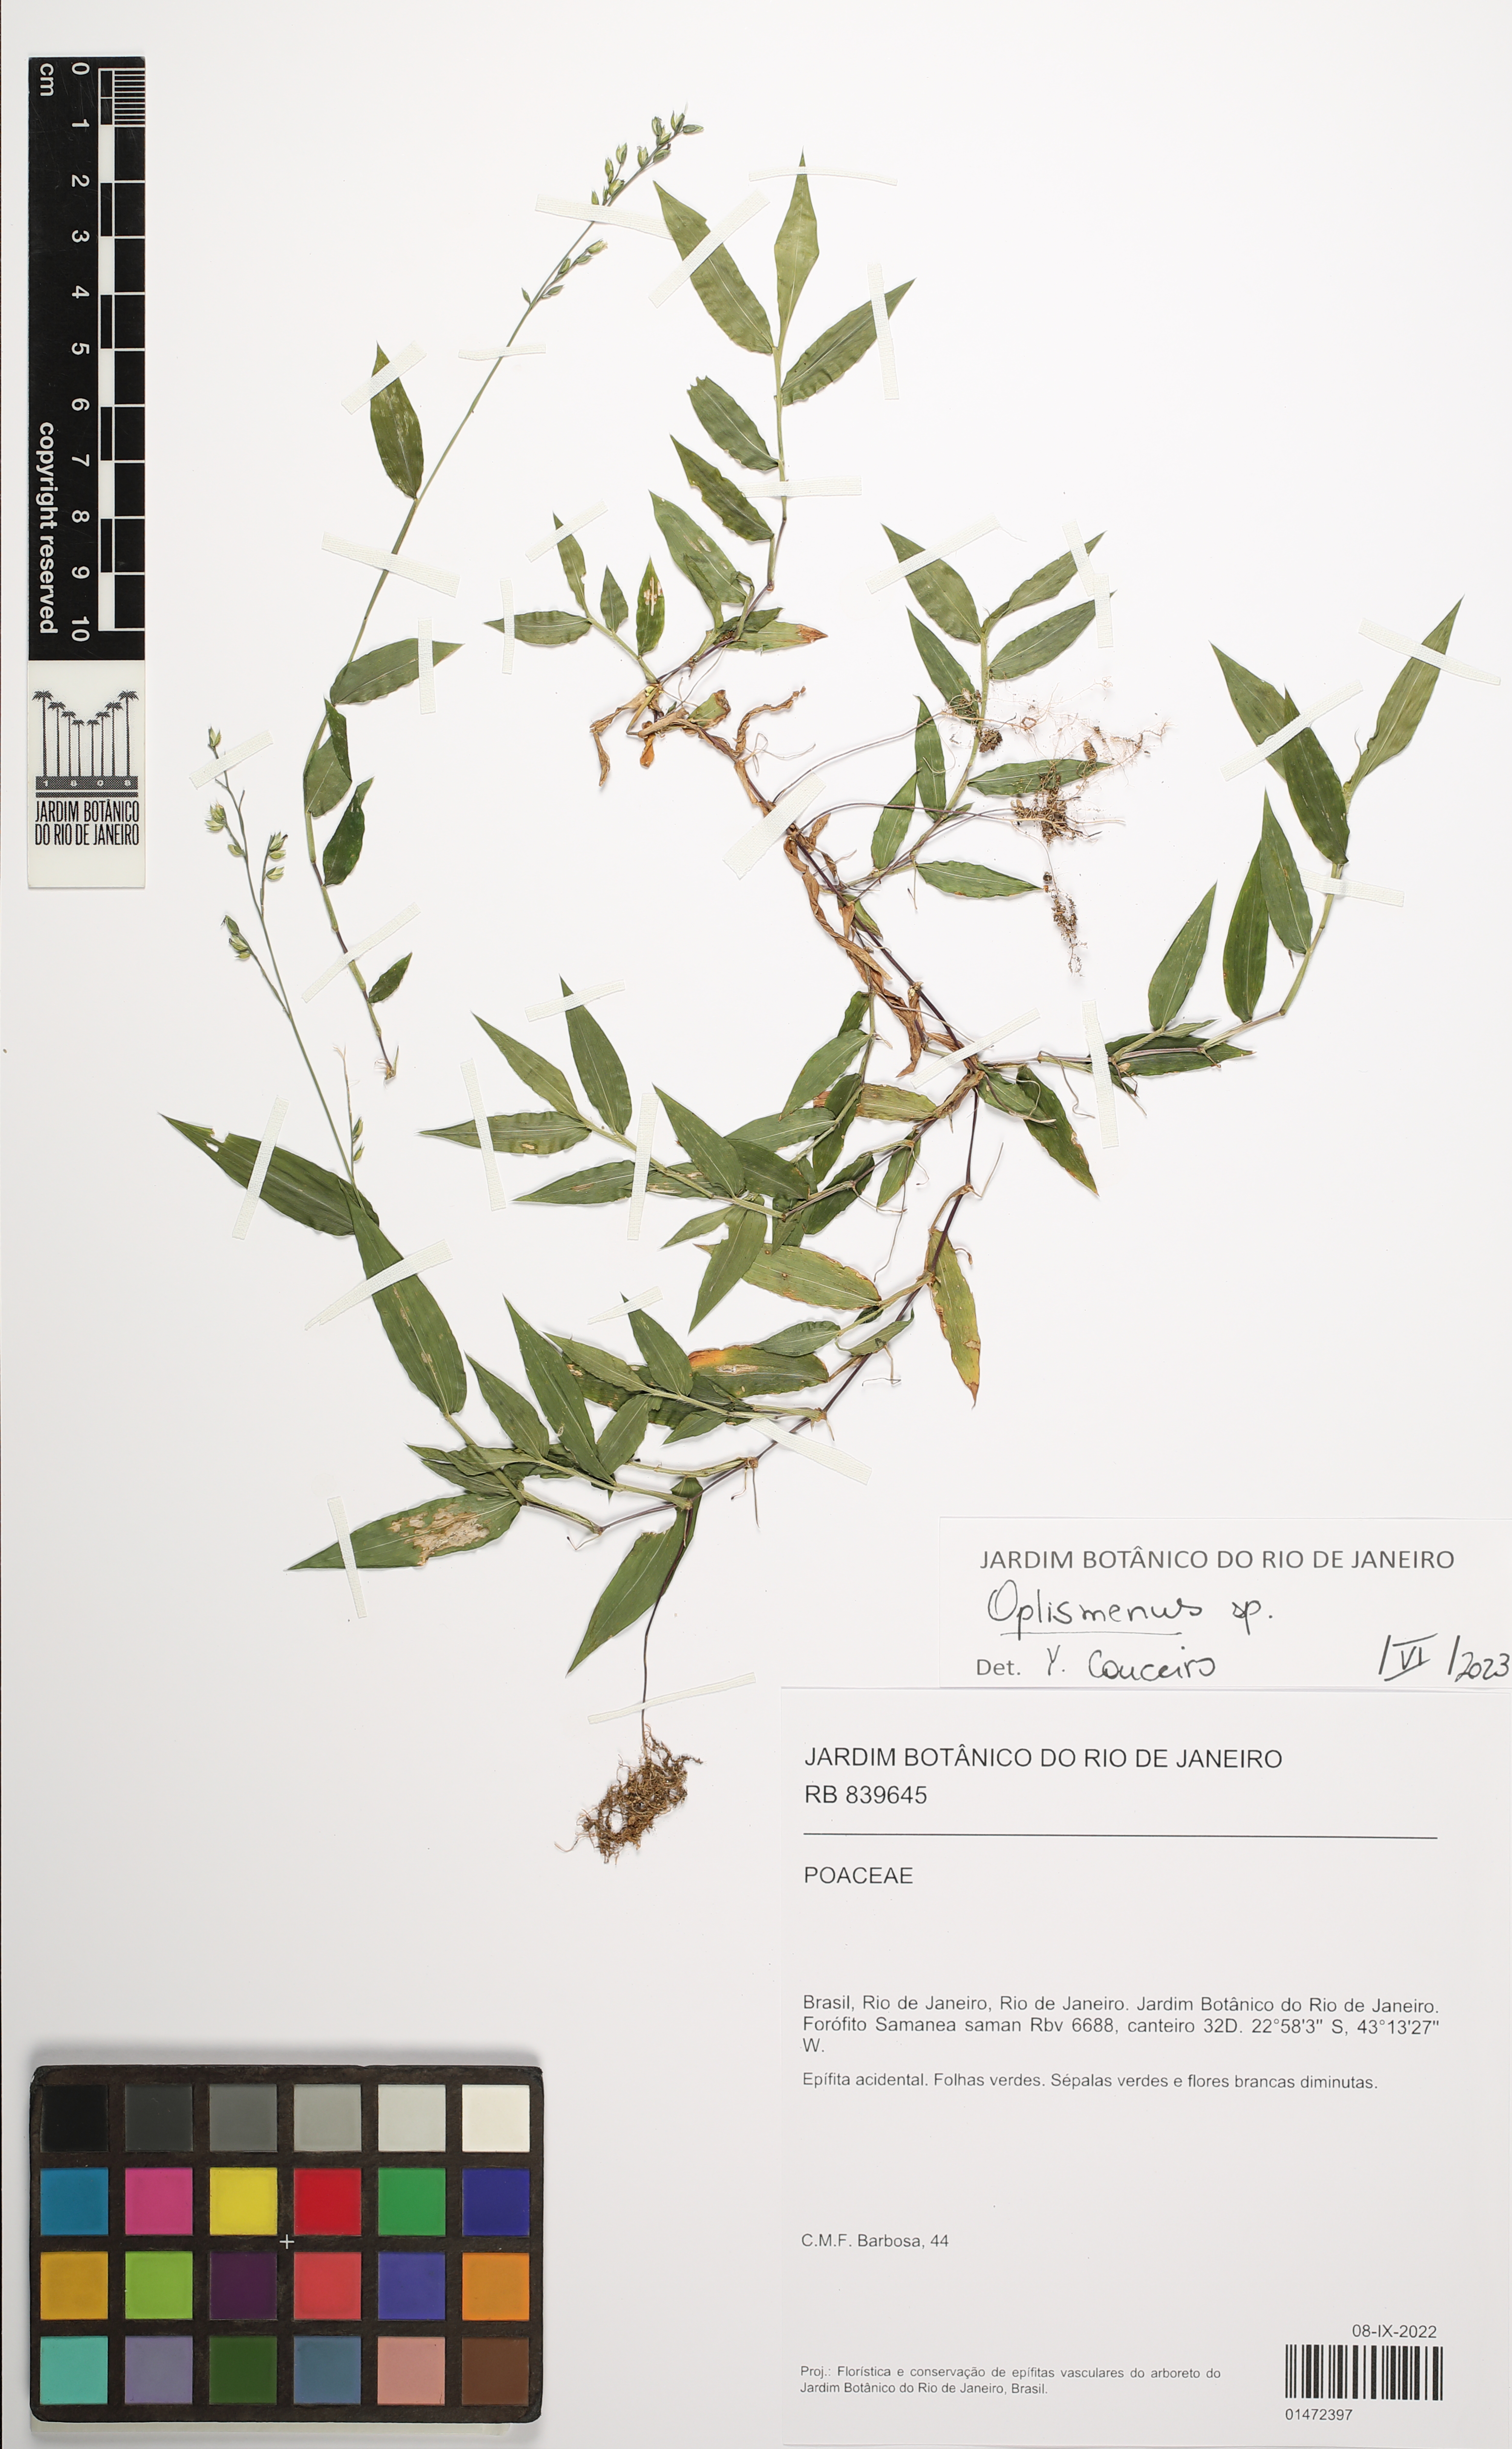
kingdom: Plantae
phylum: Tracheophyta
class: Liliopsida
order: Poales
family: Poaceae
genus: Oplismenus
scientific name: Oplismenus
